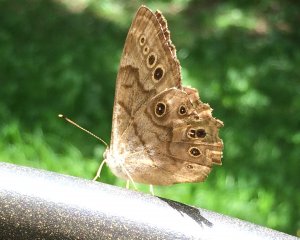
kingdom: Animalia
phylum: Arthropoda
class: Insecta
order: Lepidoptera
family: Nymphalidae
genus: Lethe
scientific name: Lethe anthedon
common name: Northern Pearly-Eye
